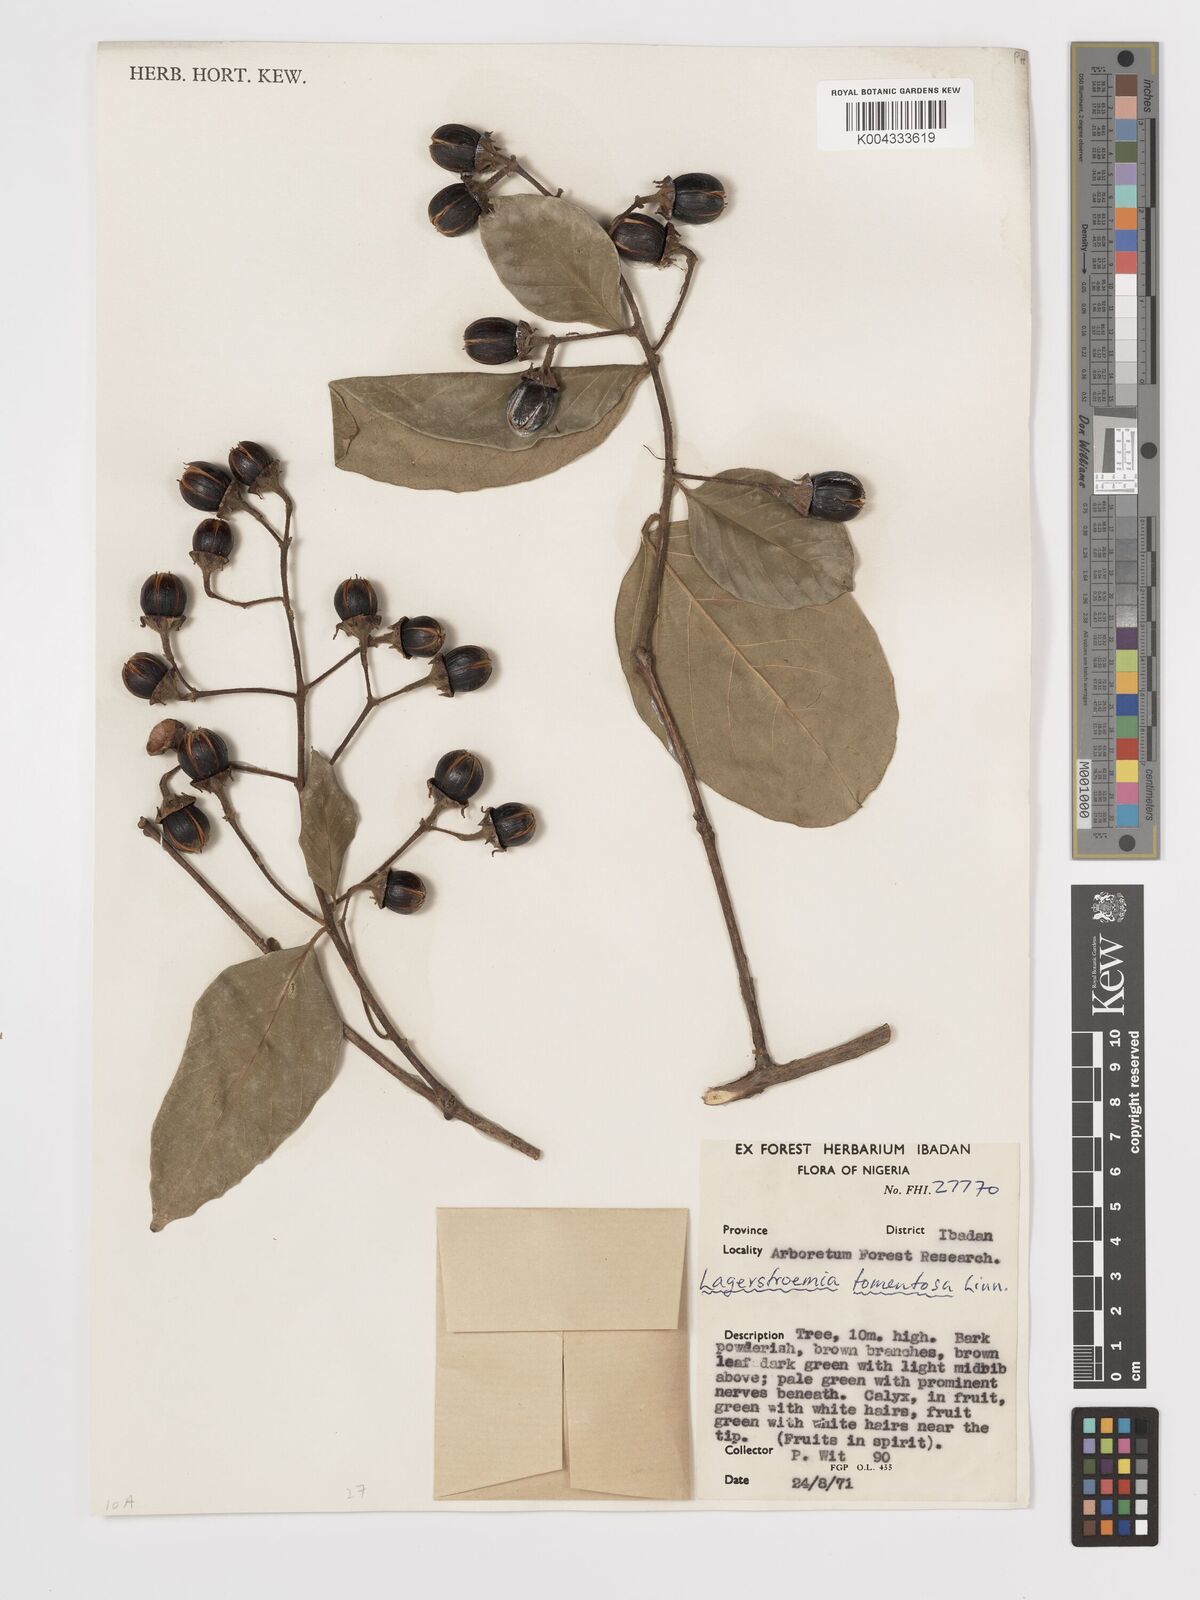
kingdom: Plantae
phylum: Tracheophyta
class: Magnoliopsida
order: Myrtales
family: Lythraceae
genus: Lagerstroemia
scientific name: Lagerstroemia tomentosa
